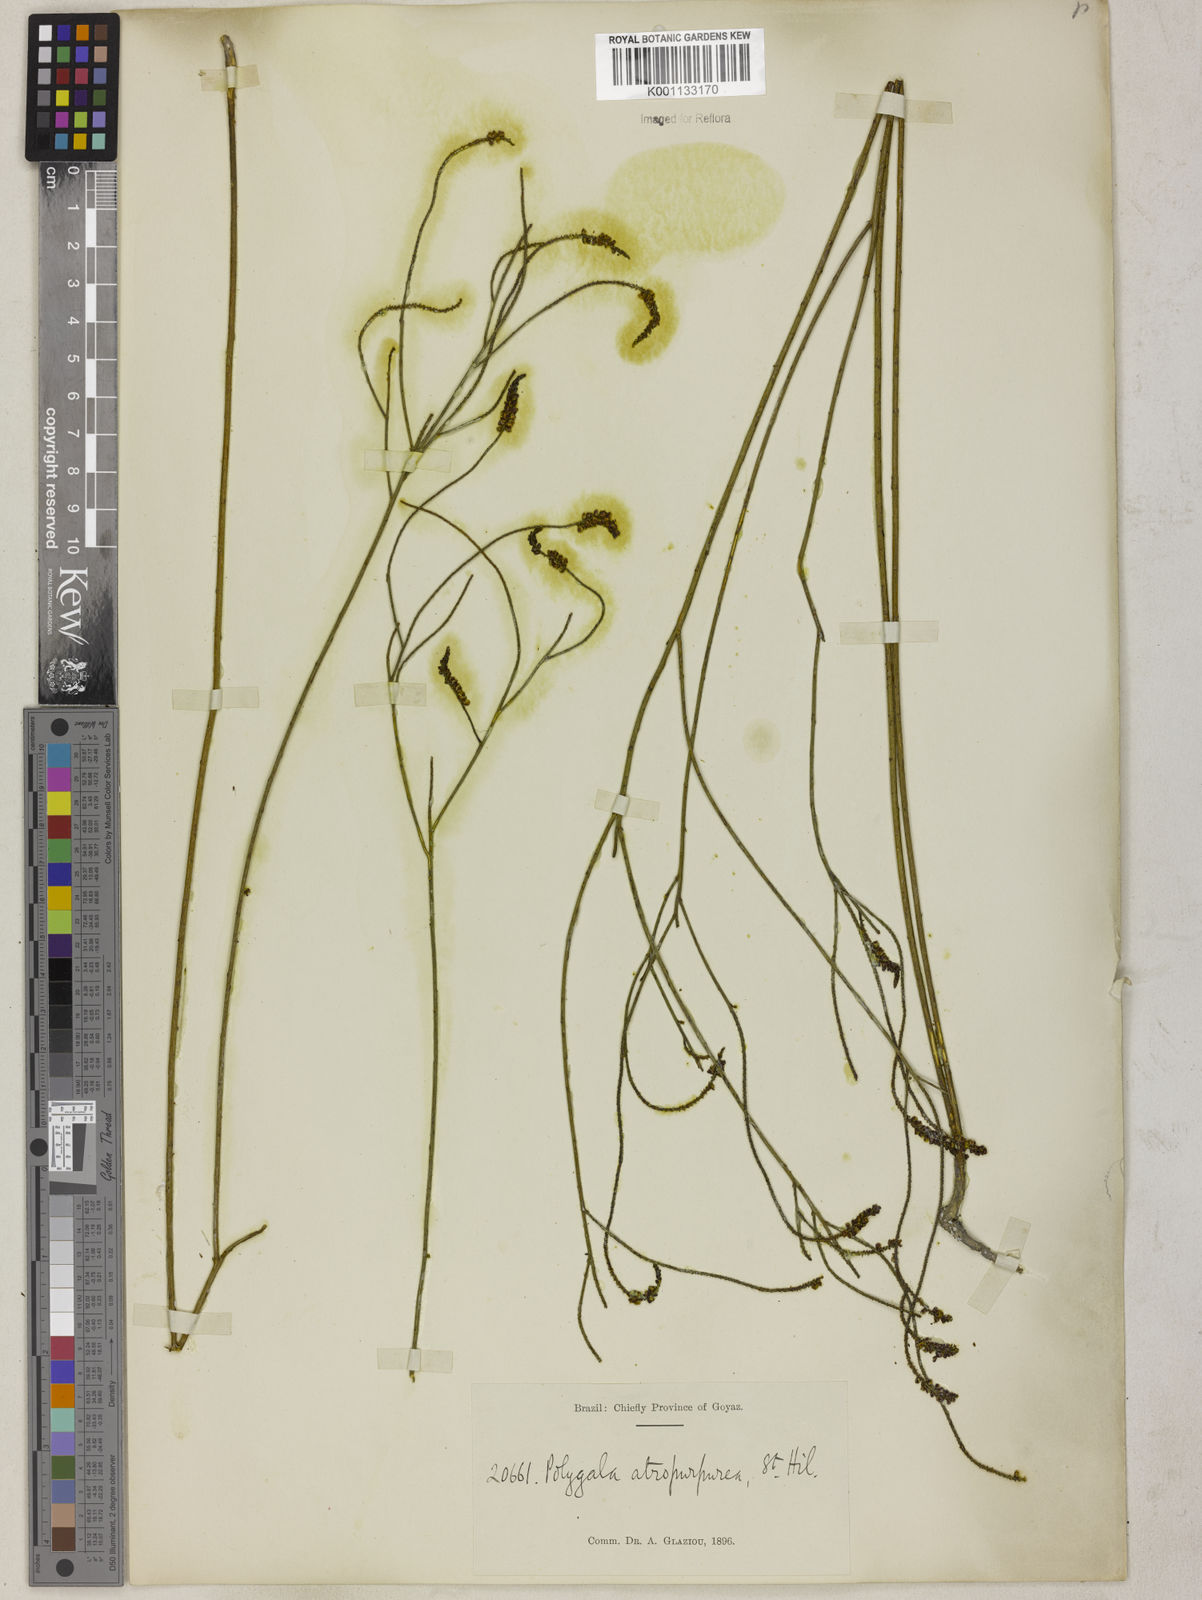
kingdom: Plantae
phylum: Tracheophyta
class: Magnoliopsida
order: Fabales
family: Polygalaceae
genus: Polygala
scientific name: Polygala atropurpurea
